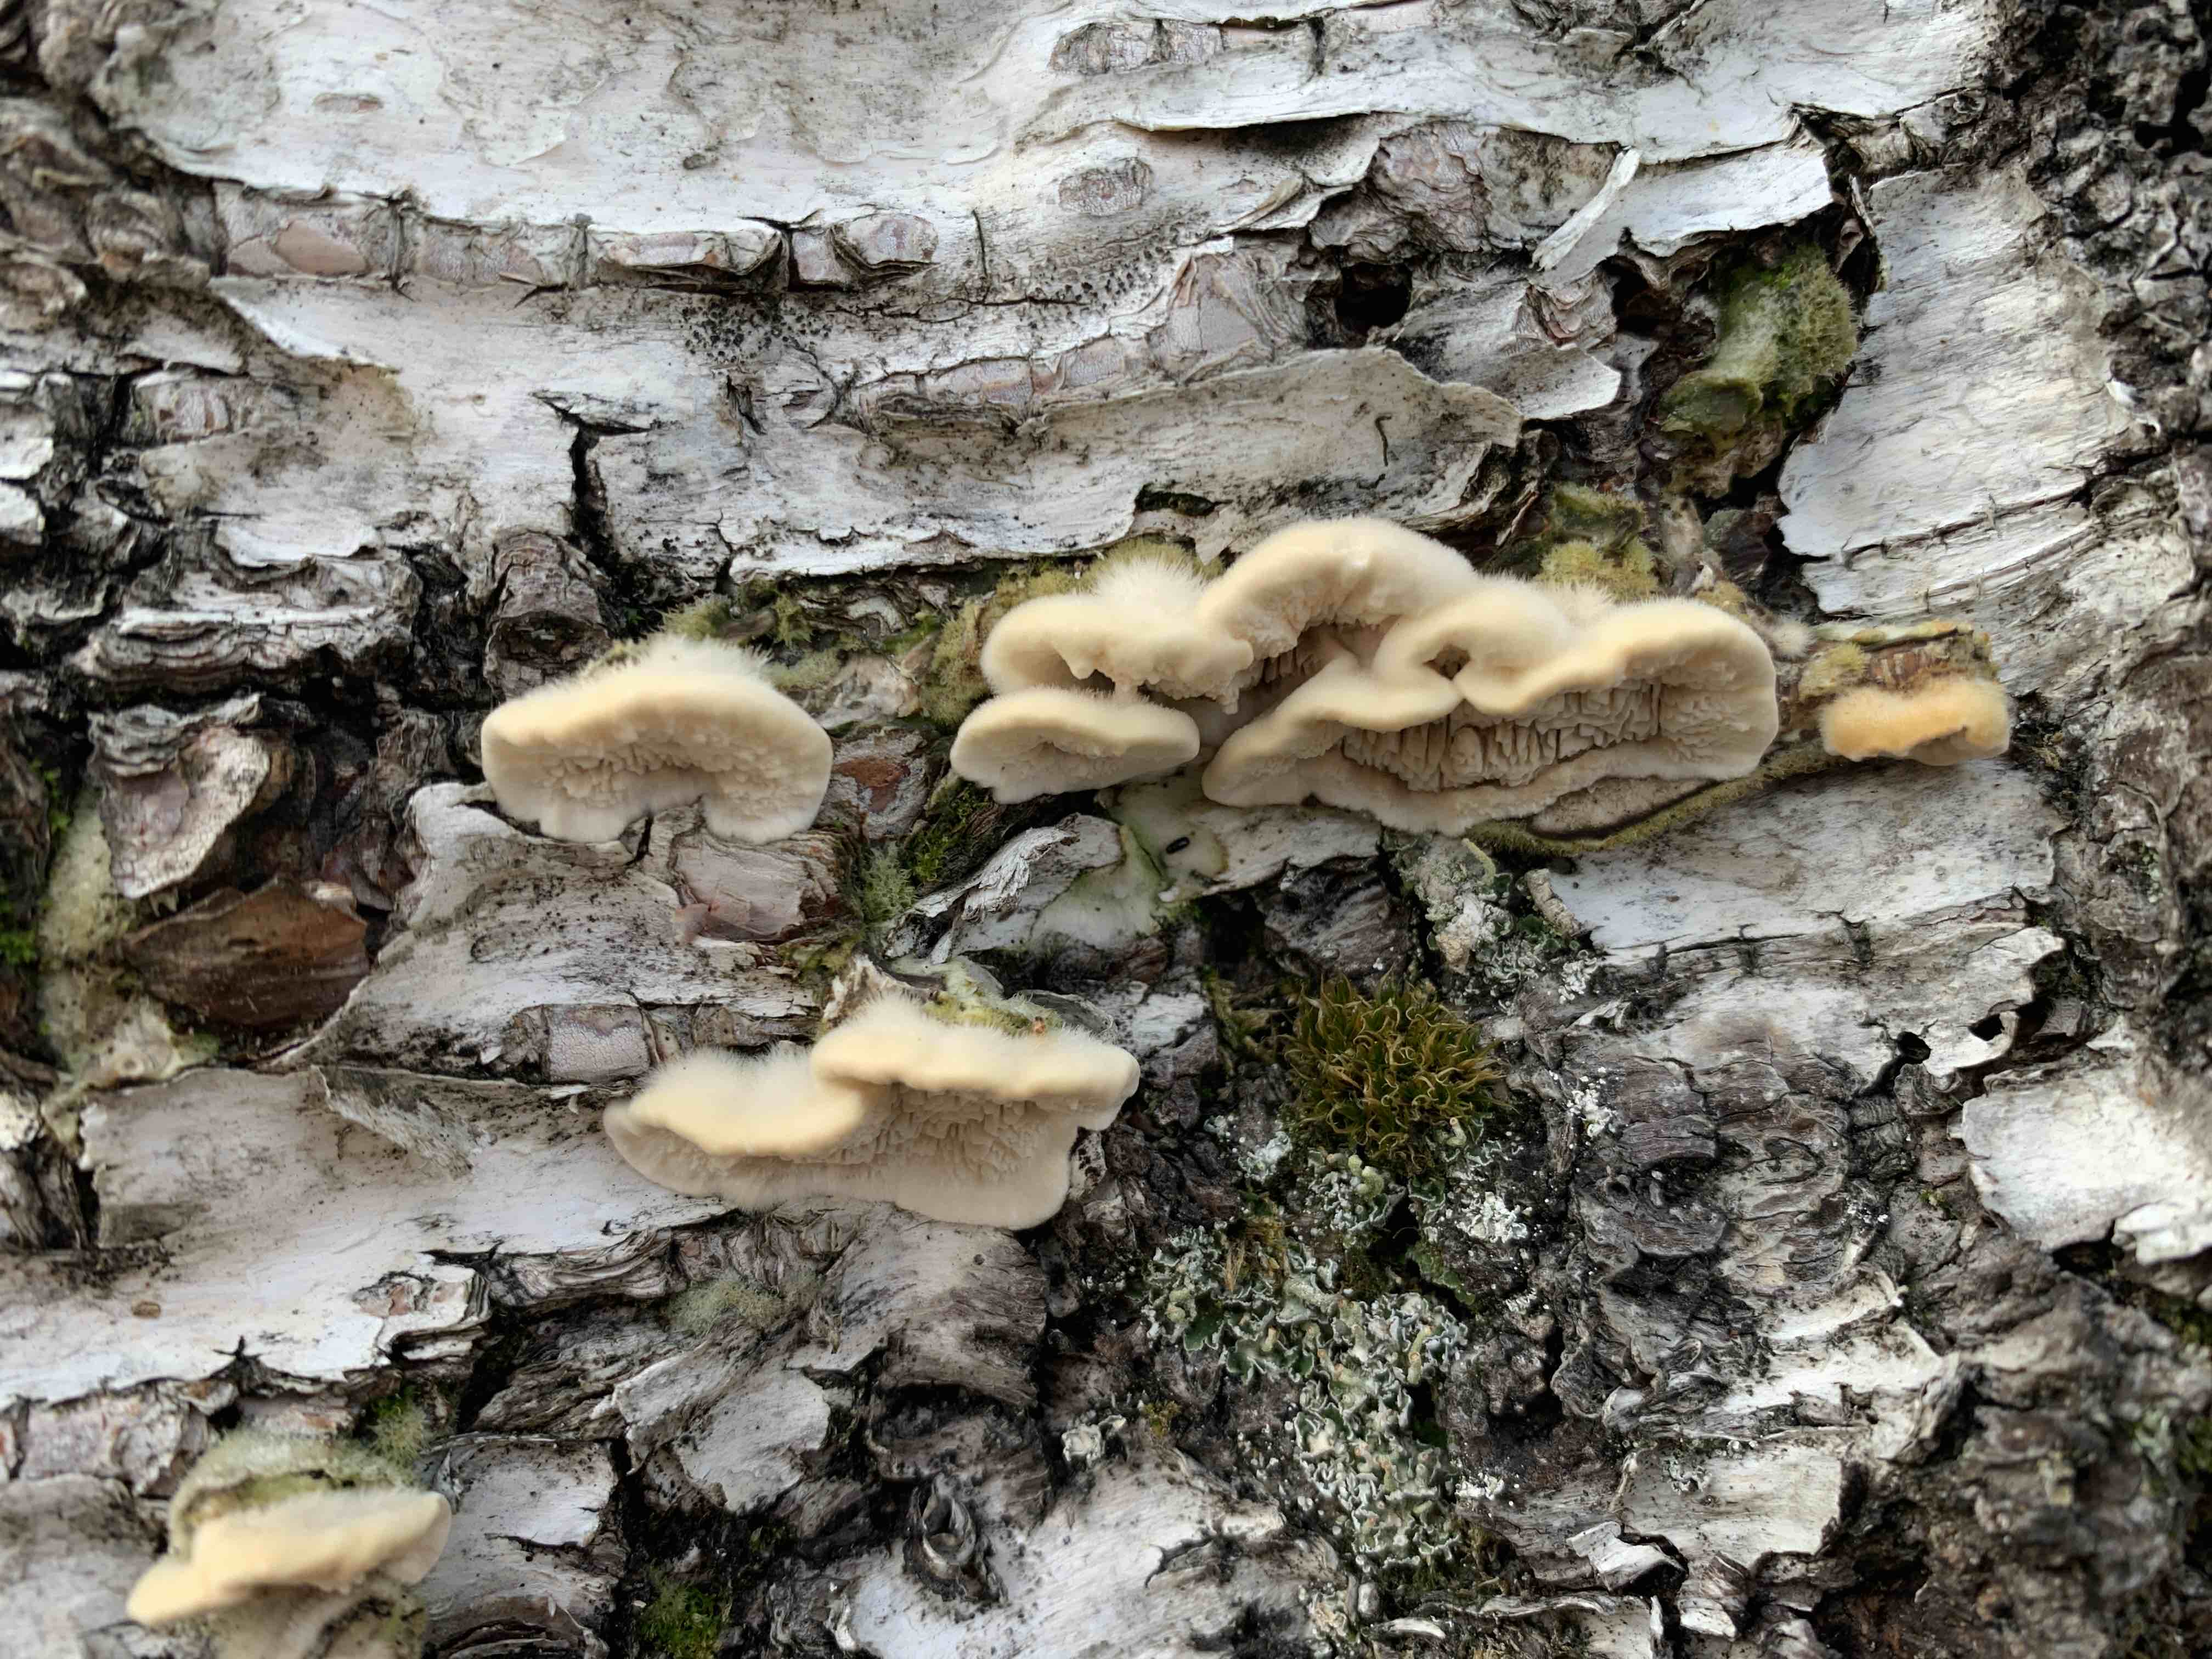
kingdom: Fungi
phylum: Basidiomycota
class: Agaricomycetes
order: Polyporales
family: Cerrenaceae
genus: Cerrena
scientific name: Cerrena unicolor
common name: ensfarvet læderporesvamp
